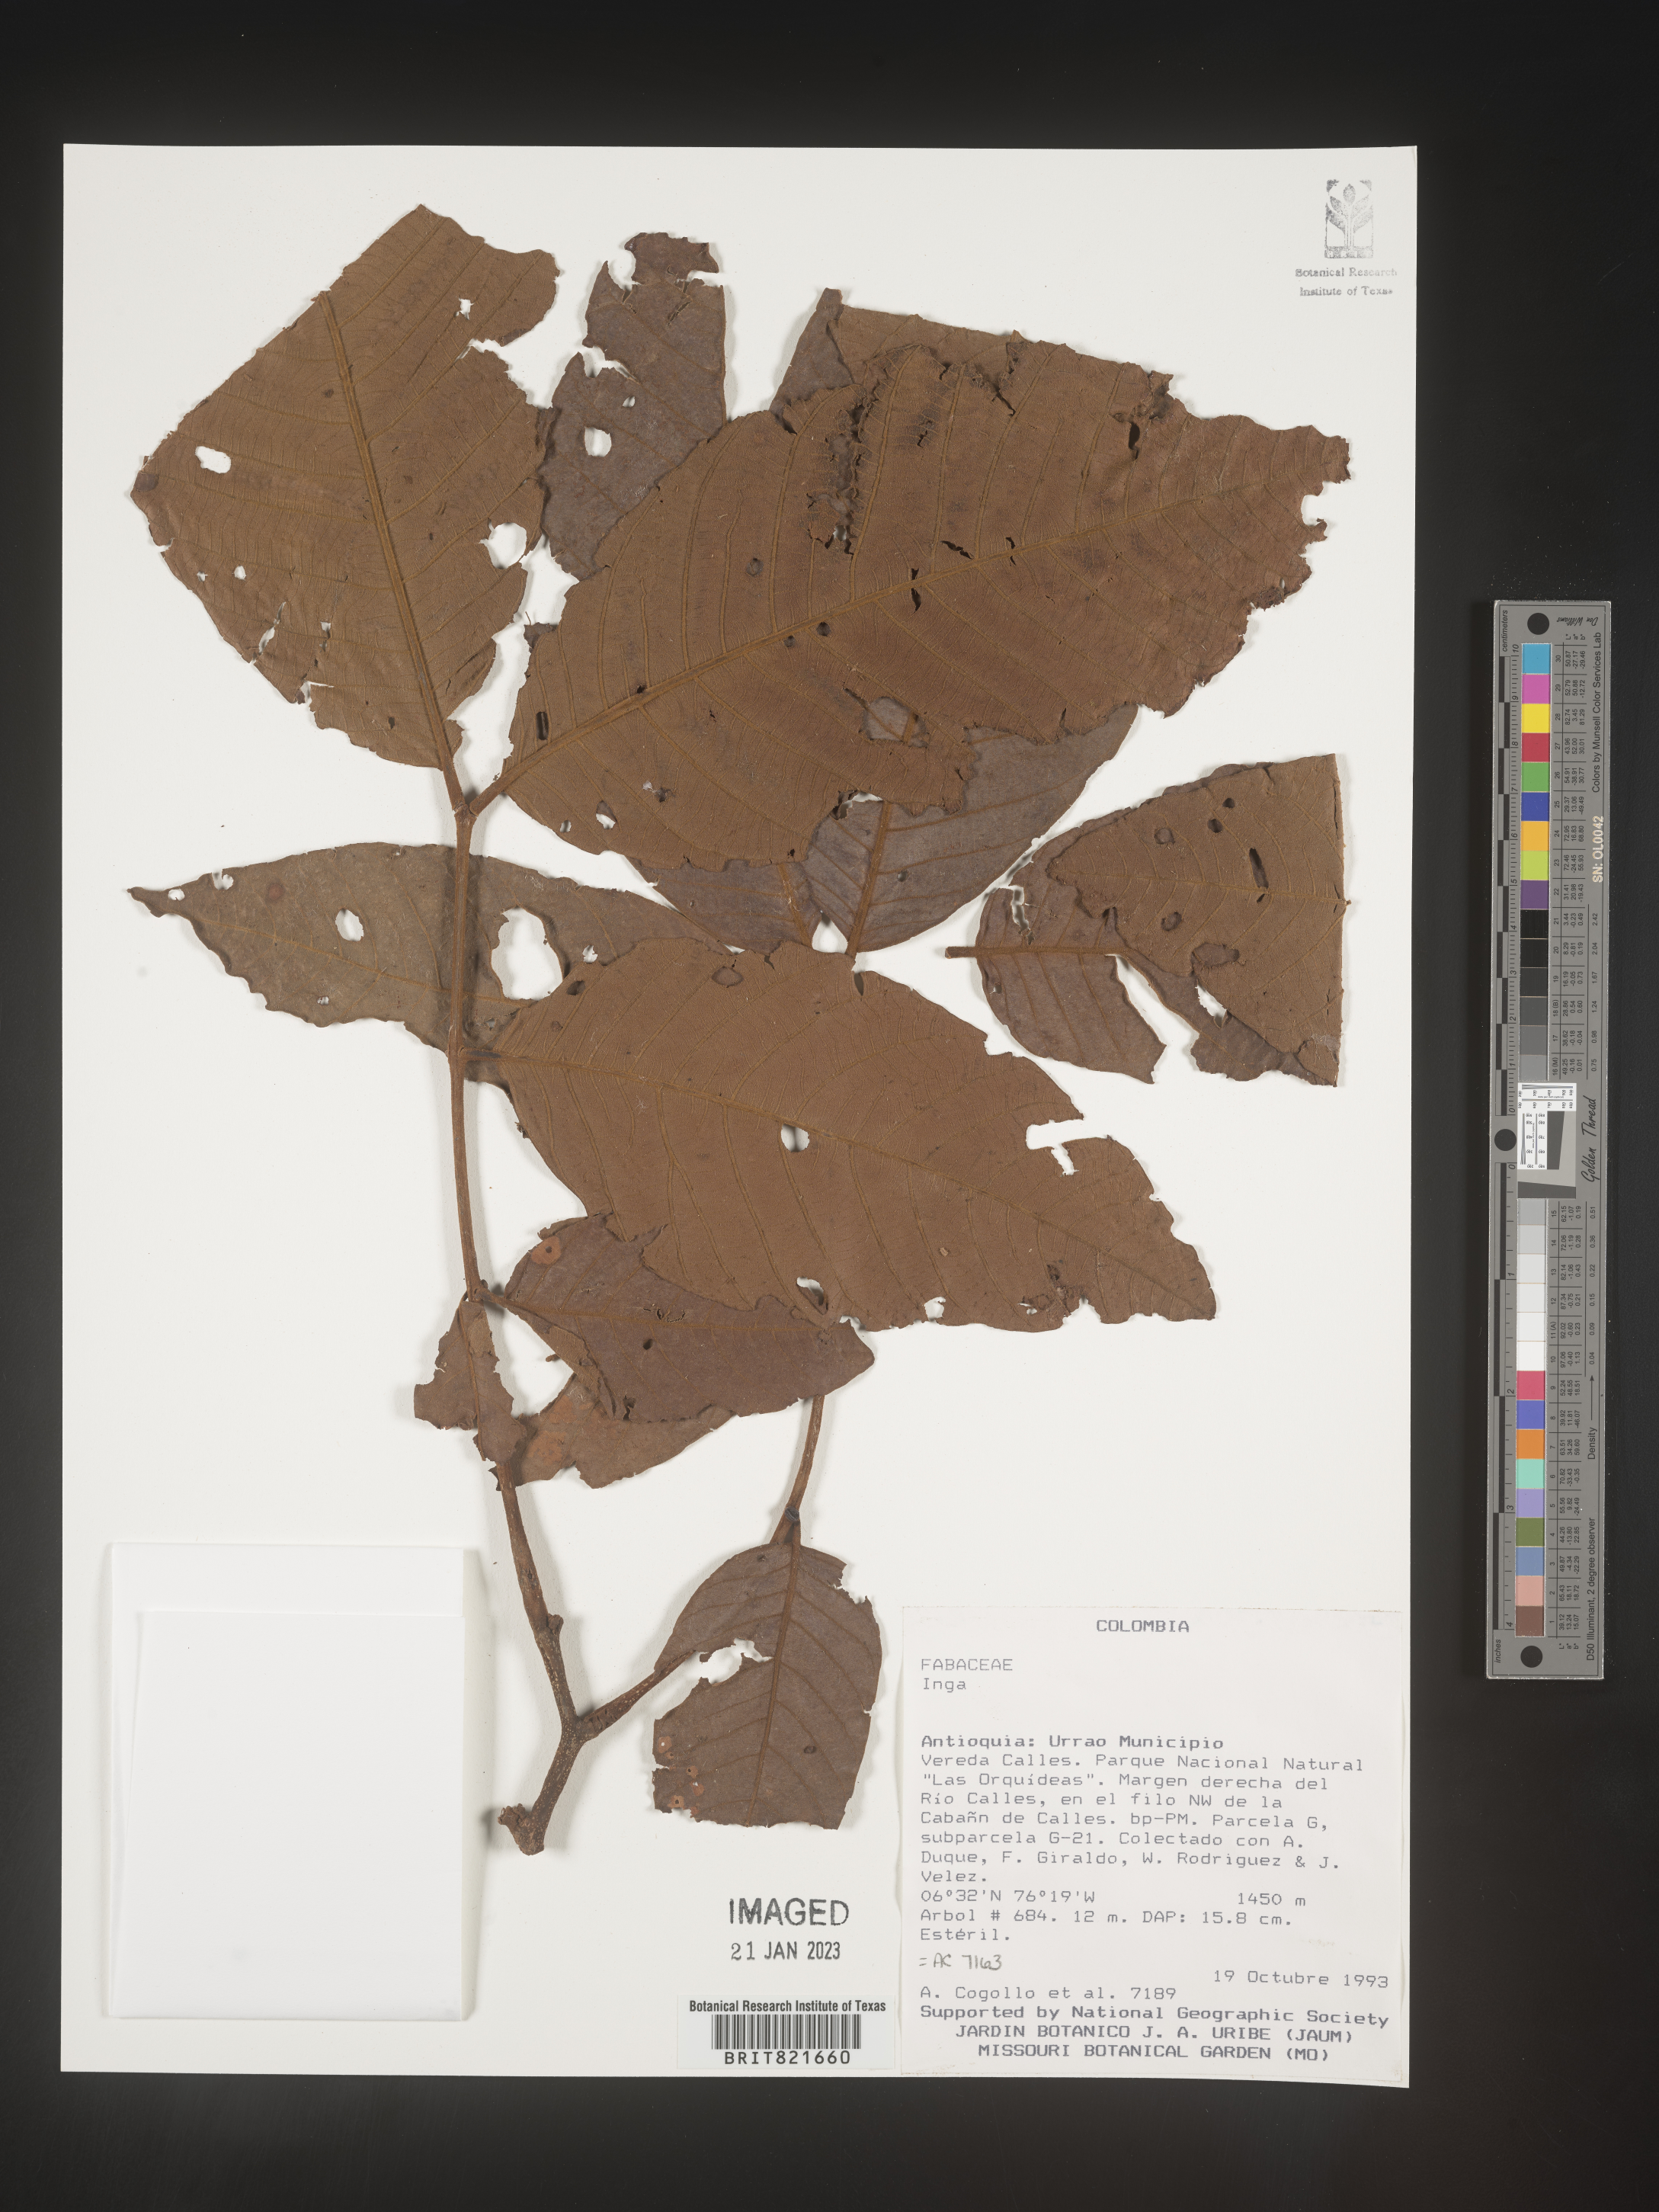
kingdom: Plantae
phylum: Tracheophyta
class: Magnoliopsida
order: Fabales
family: Fabaceae
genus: Inga
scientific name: Inga
